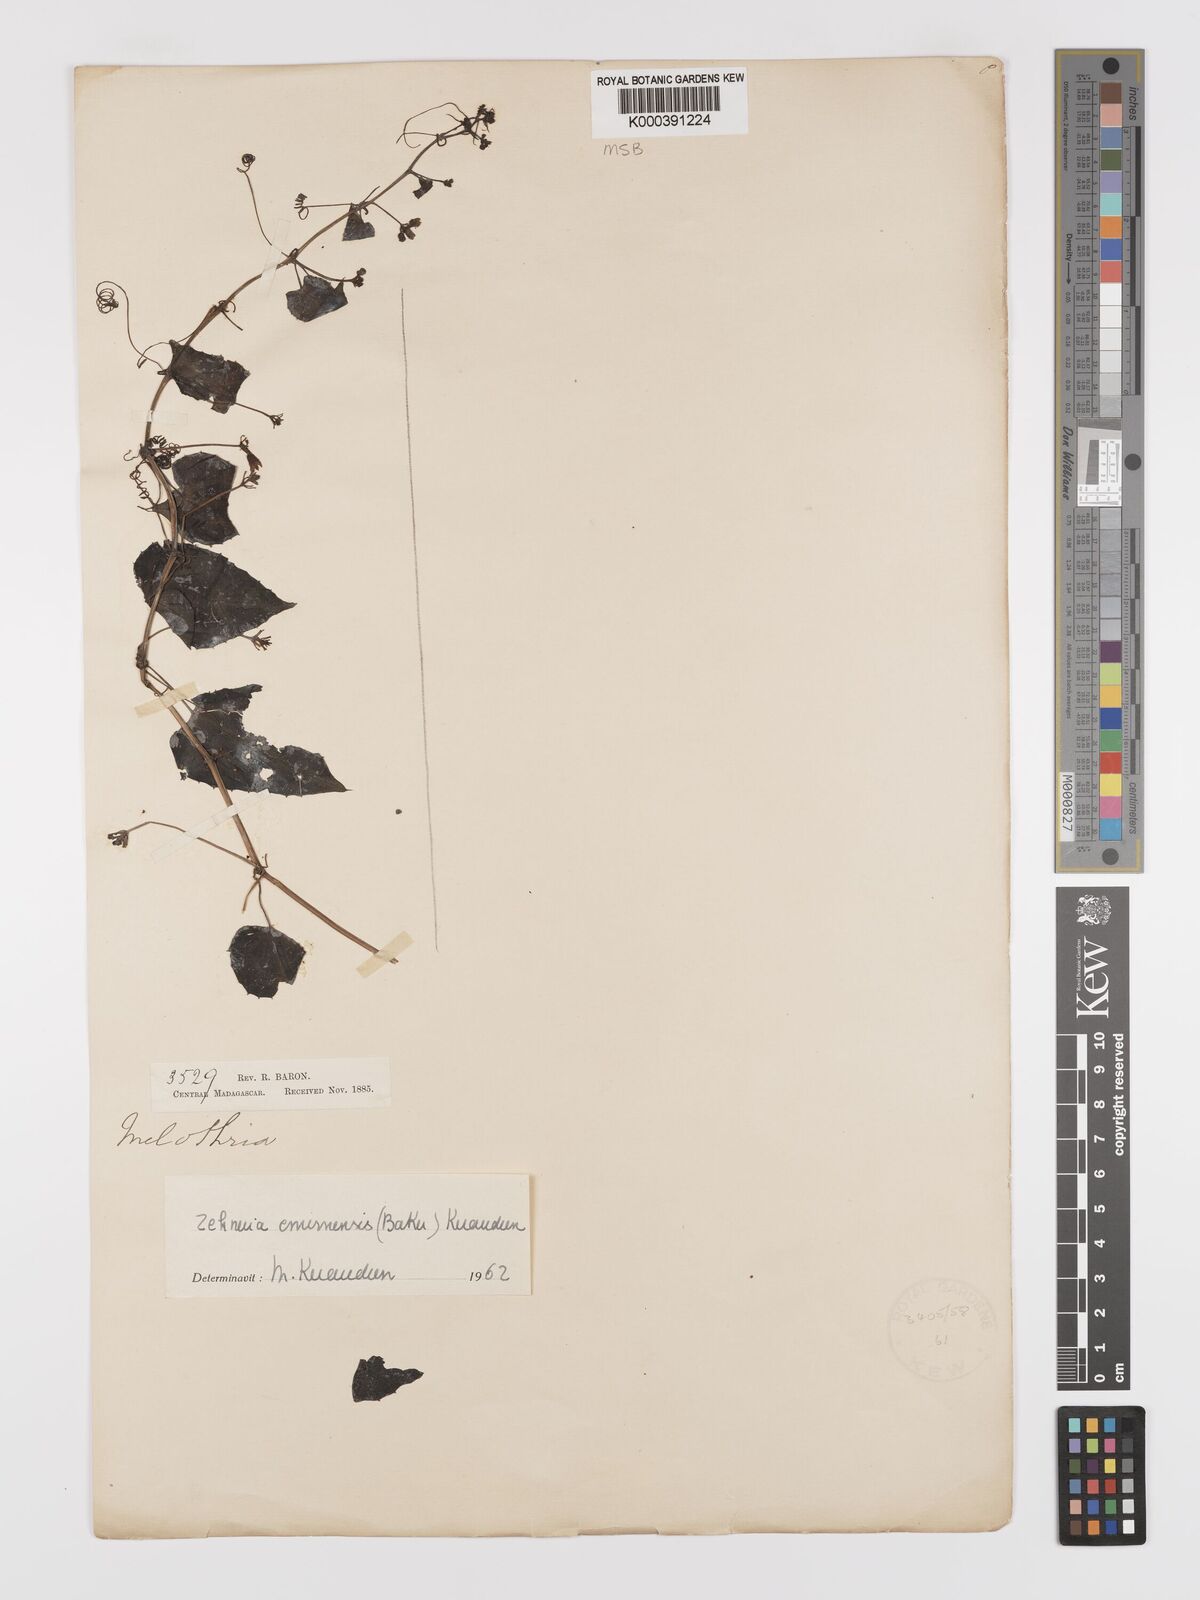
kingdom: Plantae
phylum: Tracheophyta
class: Magnoliopsida
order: Cucurbitales
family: Cucurbitaceae
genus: Zehneria
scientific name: Zehneria emirnensis
